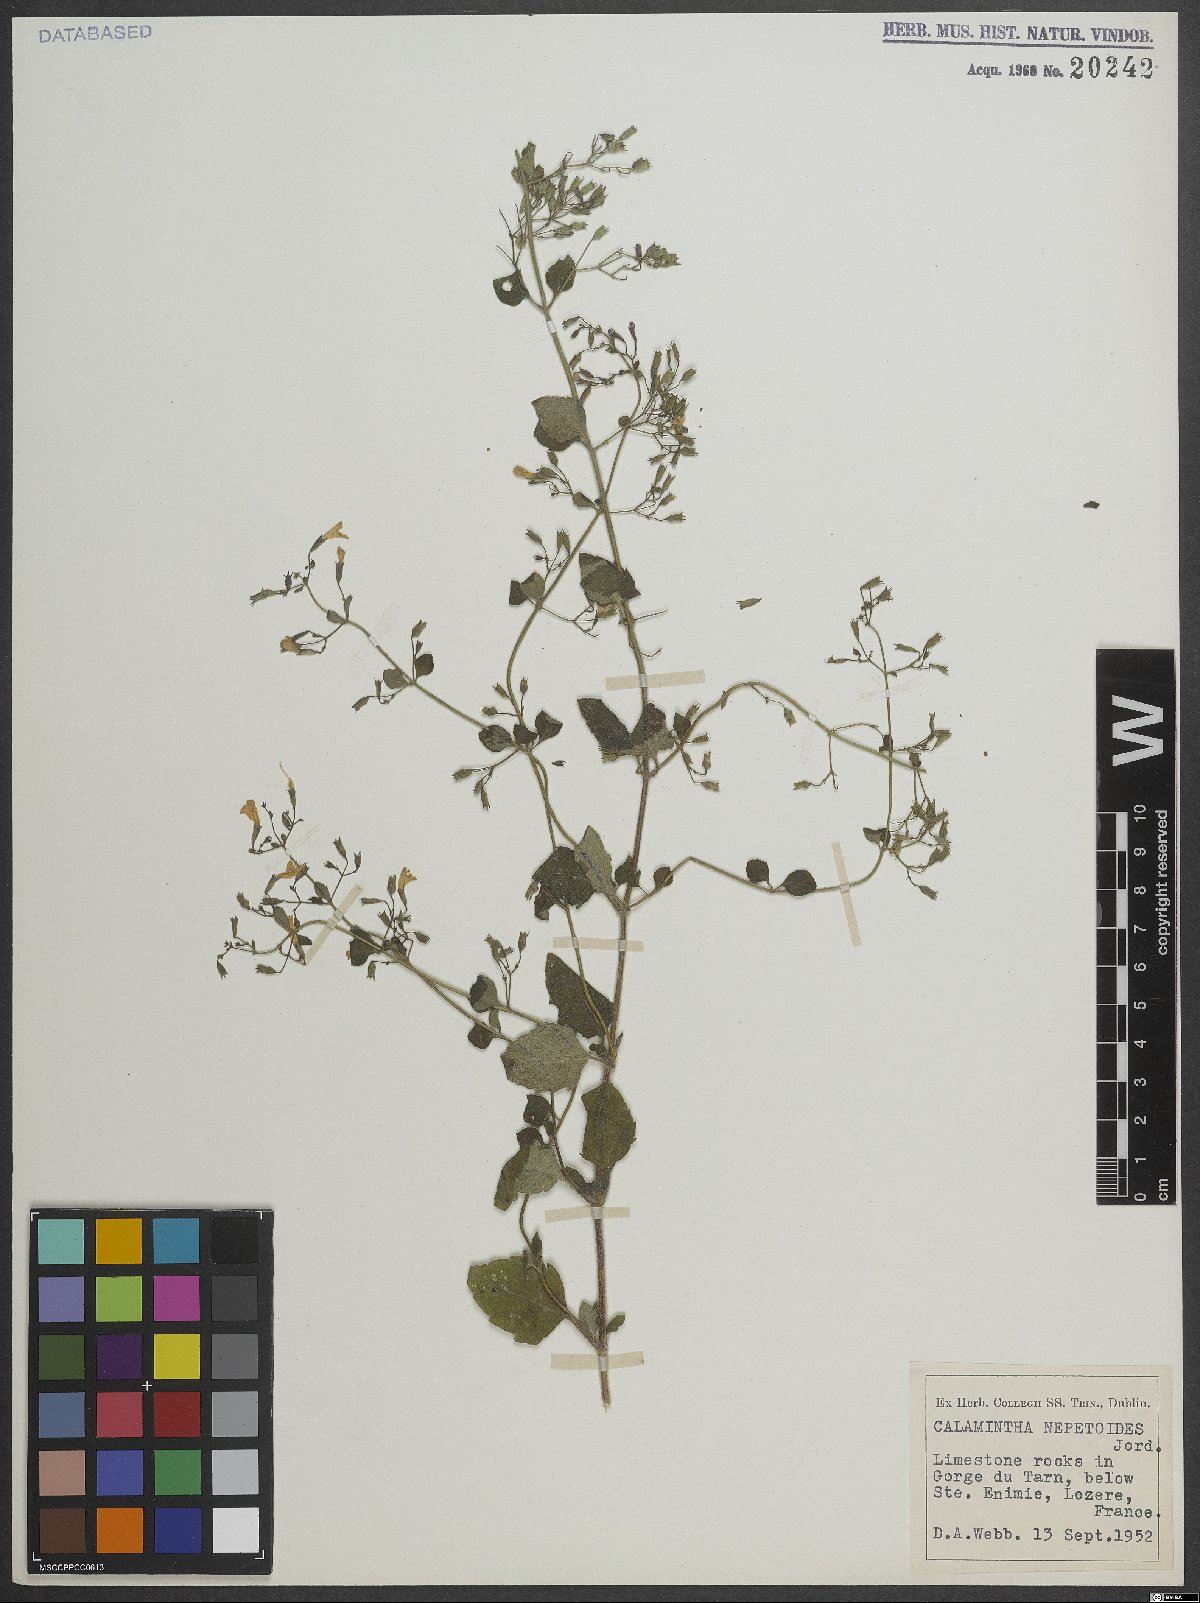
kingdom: Plantae
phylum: Tracheophyta
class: Magnoliopsida
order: Lamiales
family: Lamiaceae
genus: Clinopodium
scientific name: Clinopodium nepeta
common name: Lesser calamint
